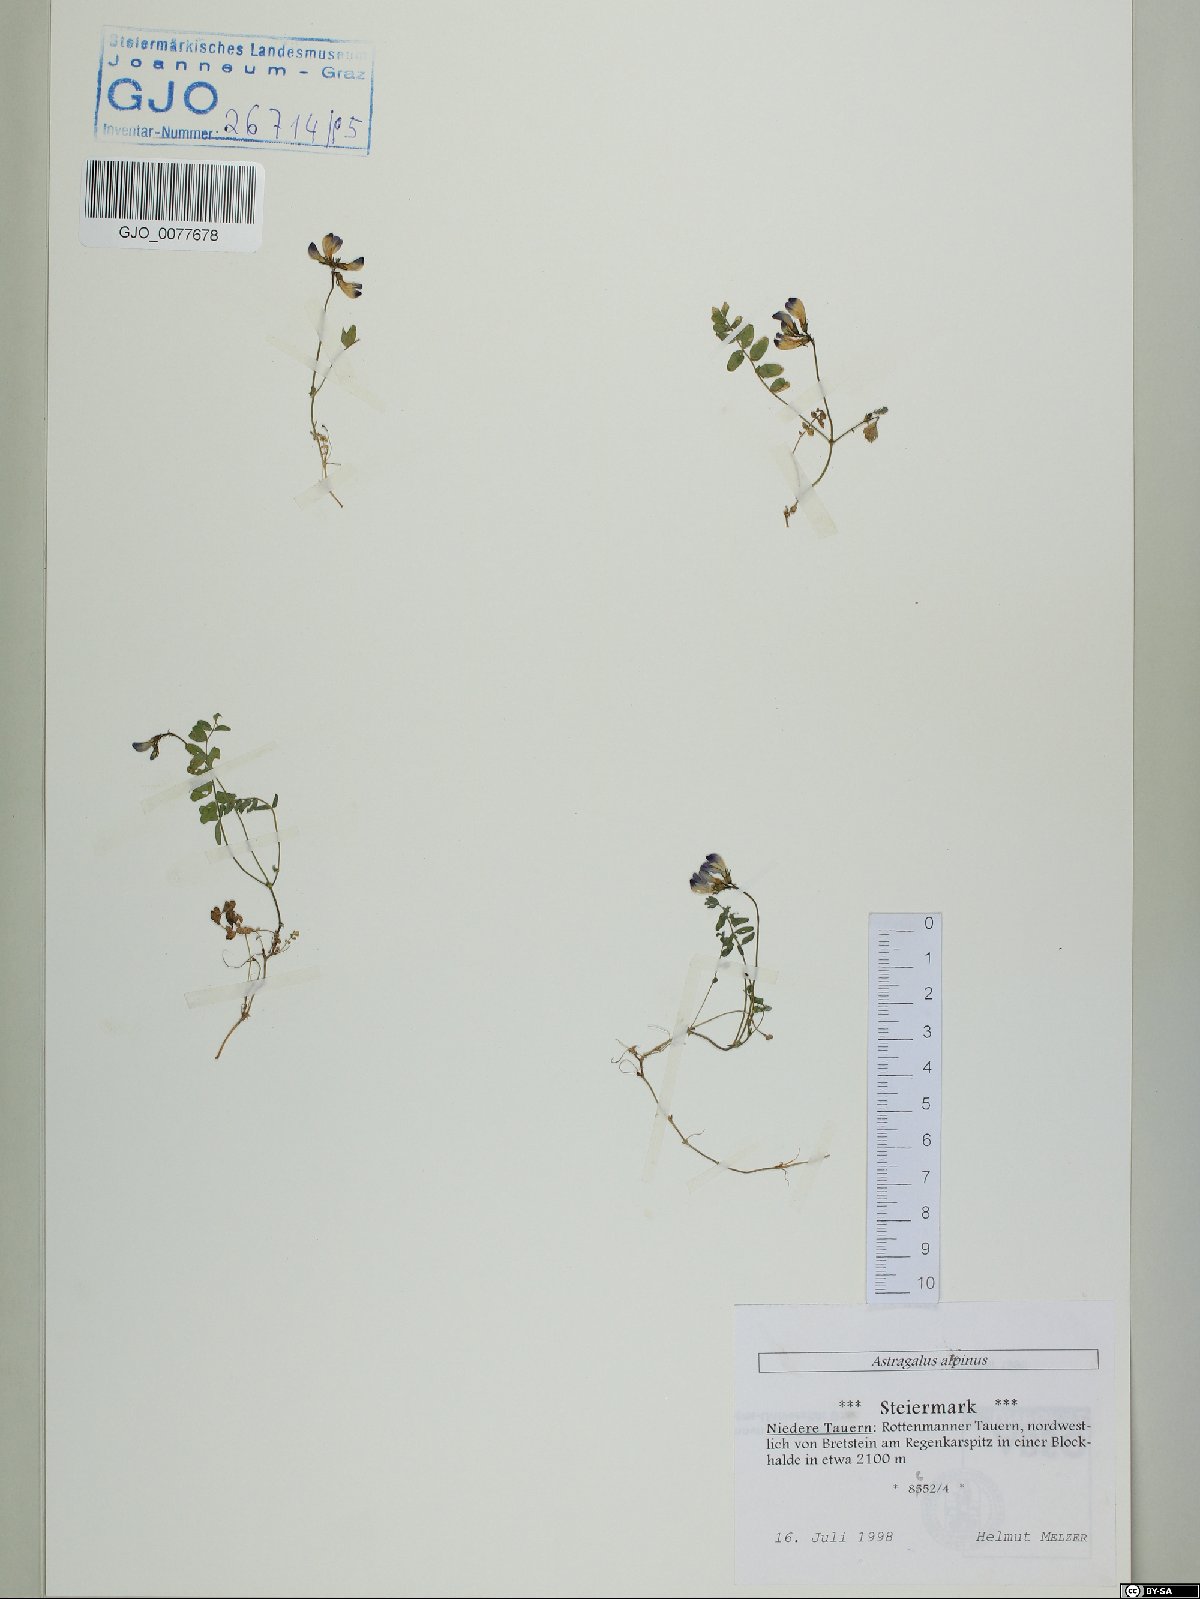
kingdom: Plantae
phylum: Tracheophyta
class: Magnoliopsida
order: Fabales
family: Fabaceae
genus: Astragalus
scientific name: Astragalus alpinus
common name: Alpine milk-vetch
